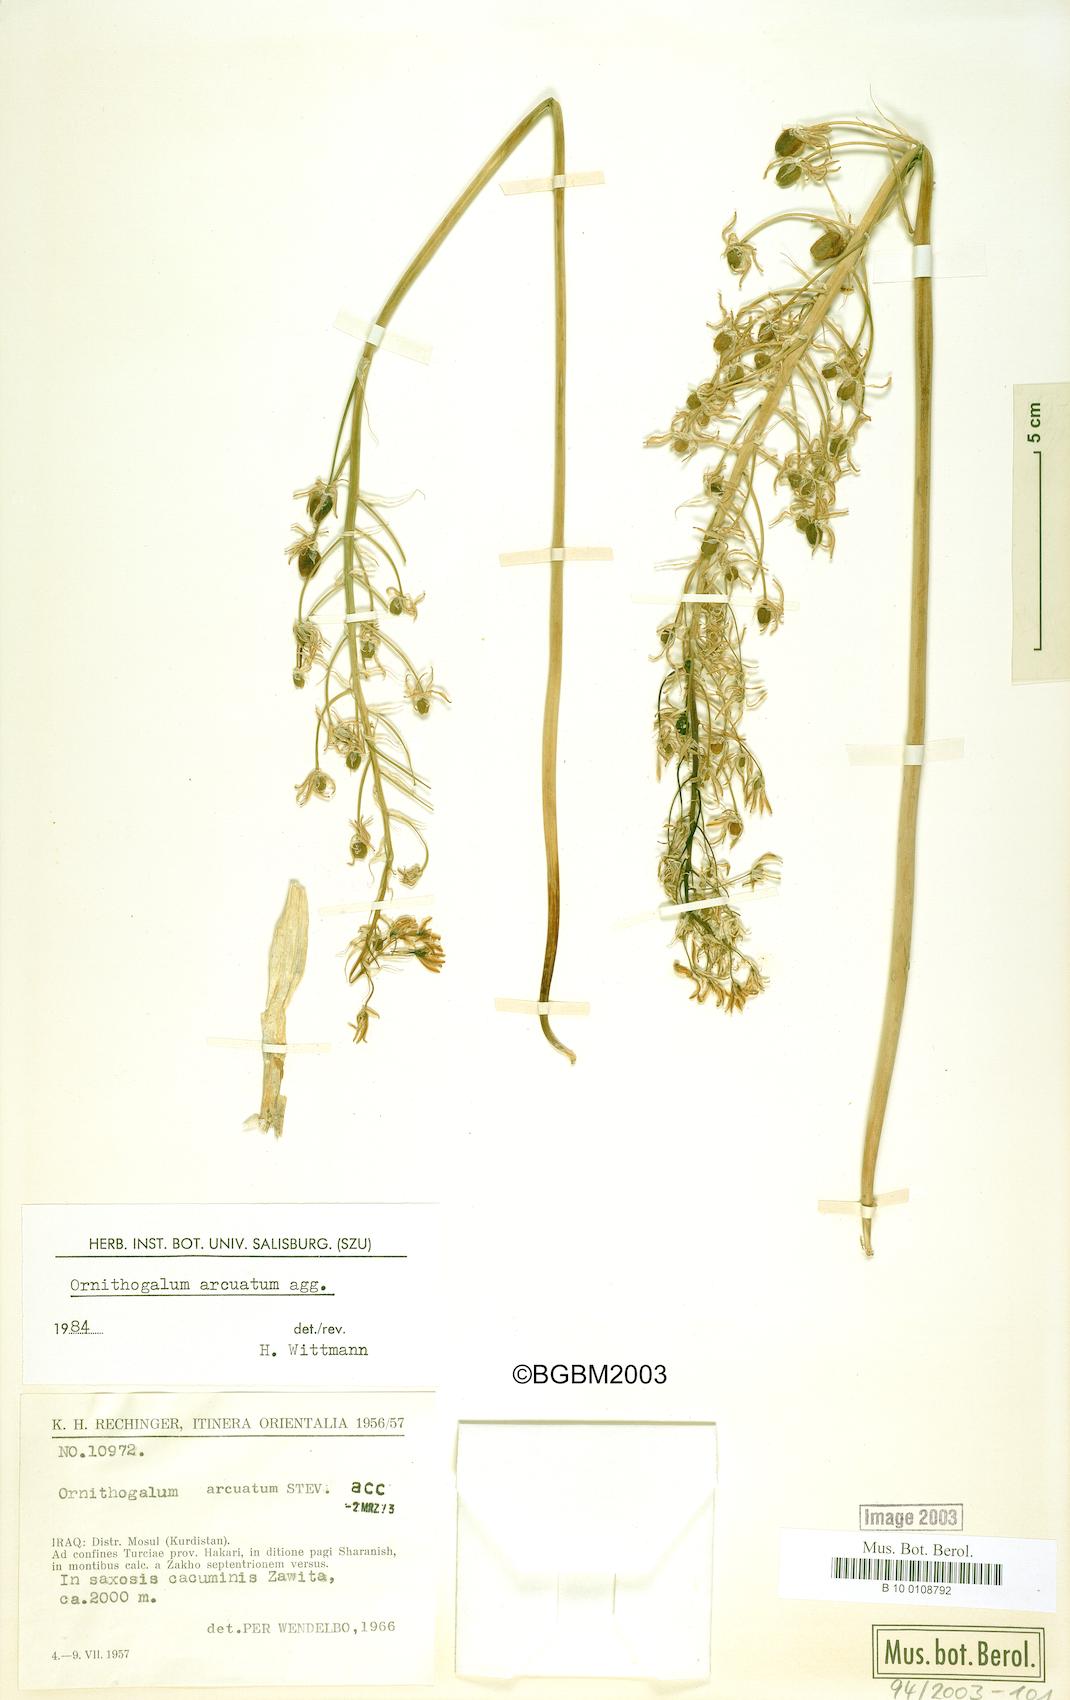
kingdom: Plantae
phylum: Tracheophyta
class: Liliopsida
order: Asparagales
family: Asparagaceae
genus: Ornithogalum
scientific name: Ornithogalum arcuatum
